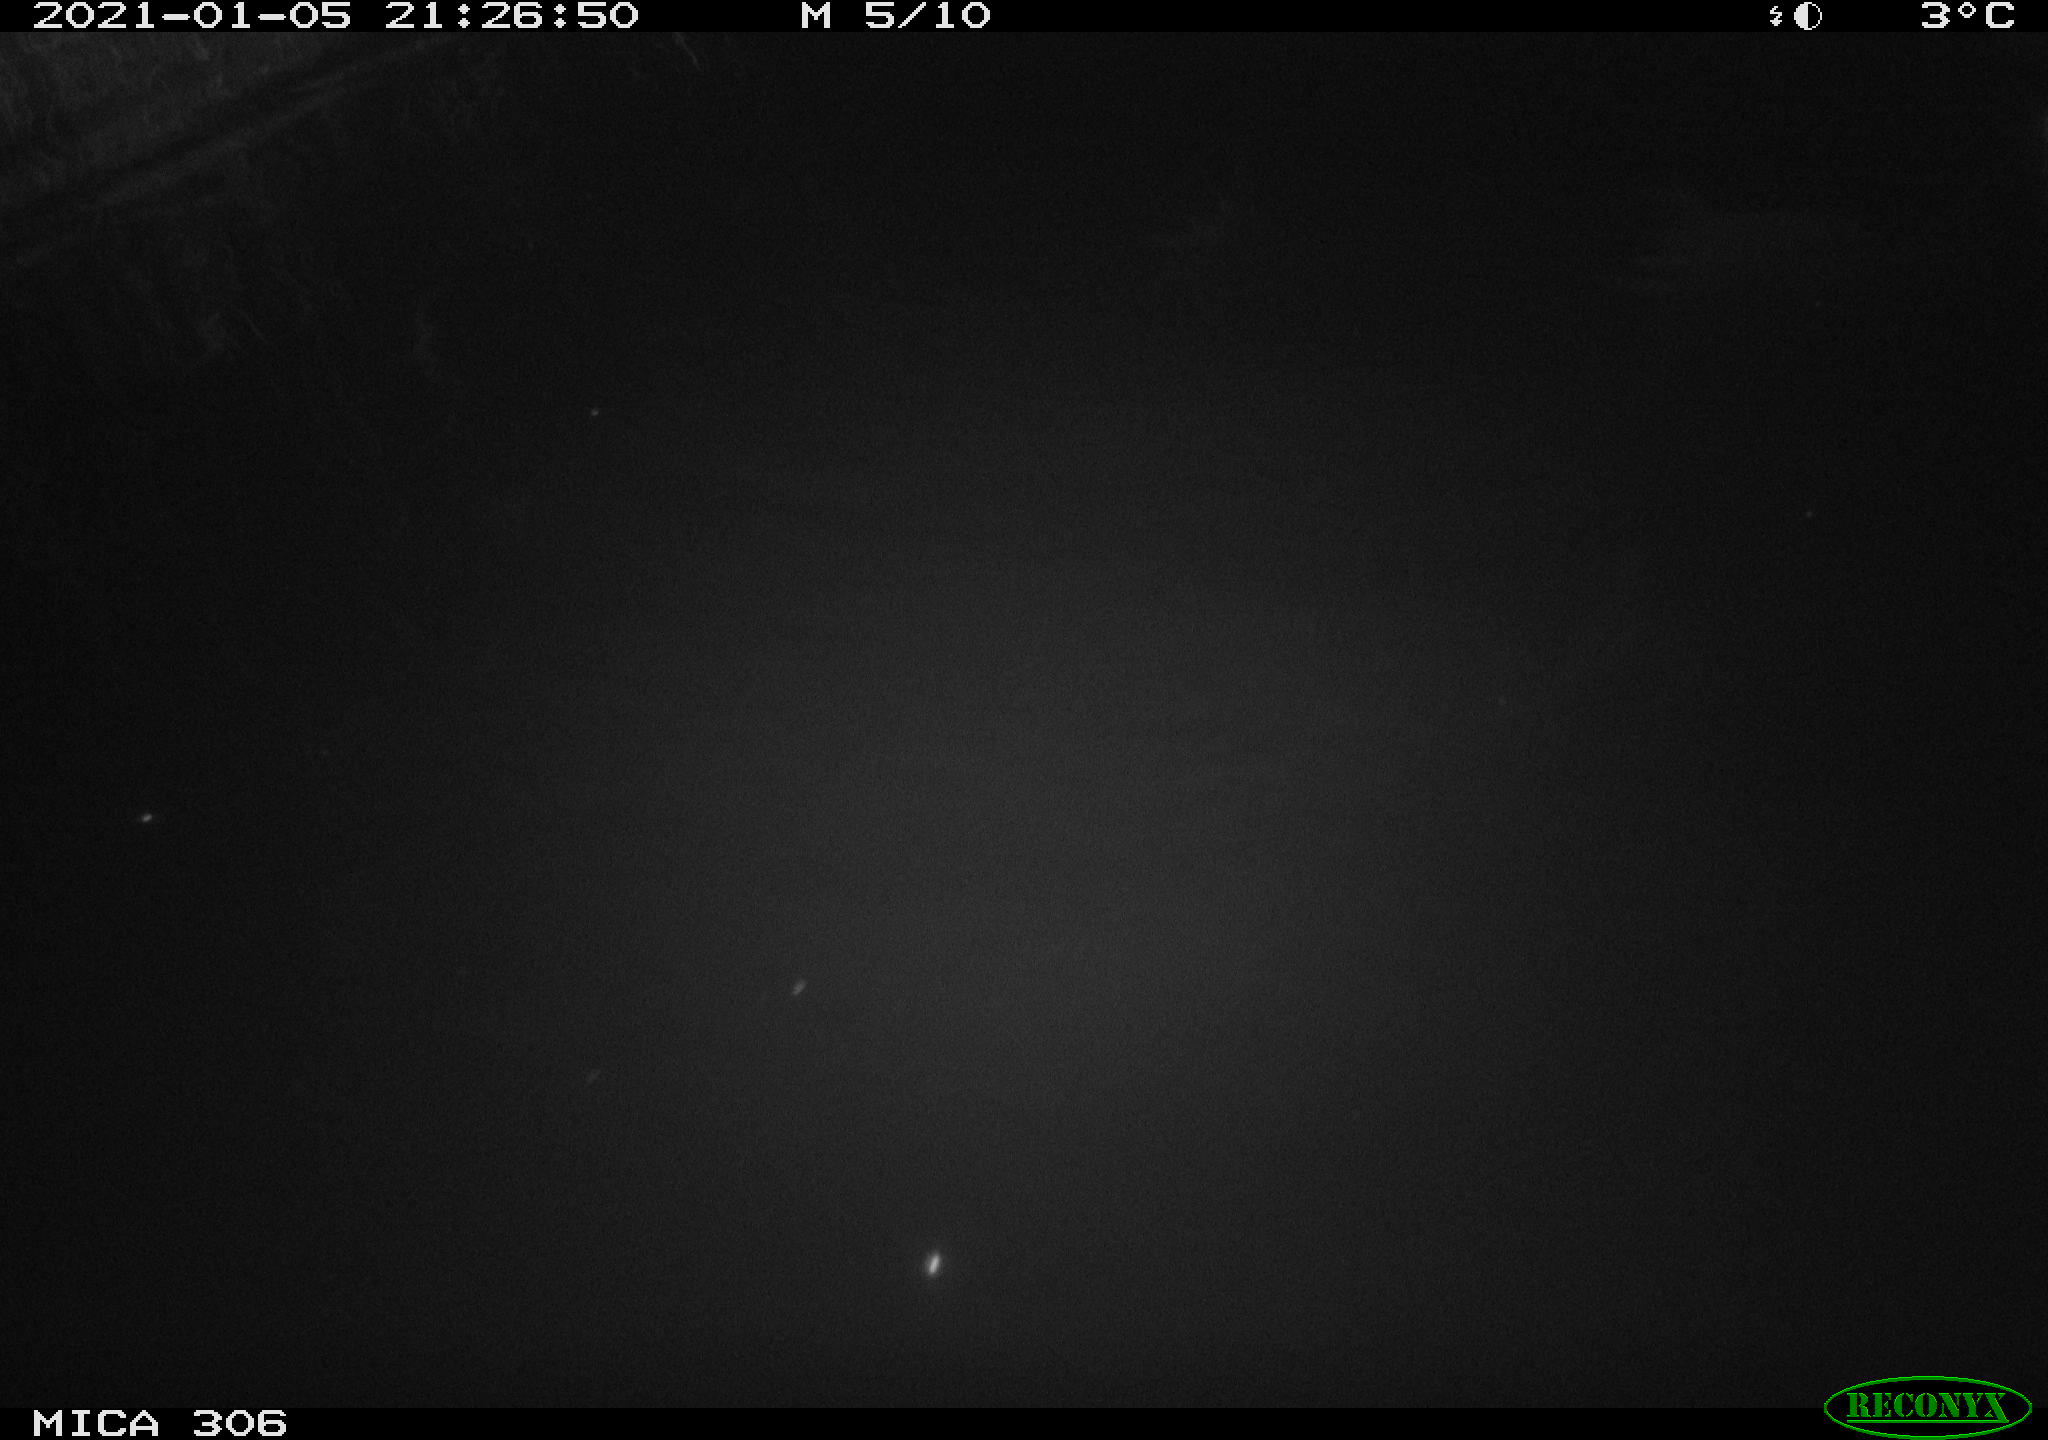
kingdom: Animalia
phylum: Chordata
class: Aves
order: Anseriformes
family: Anatidae
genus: Anas
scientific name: Anas platyrhynchos
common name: Mallard
